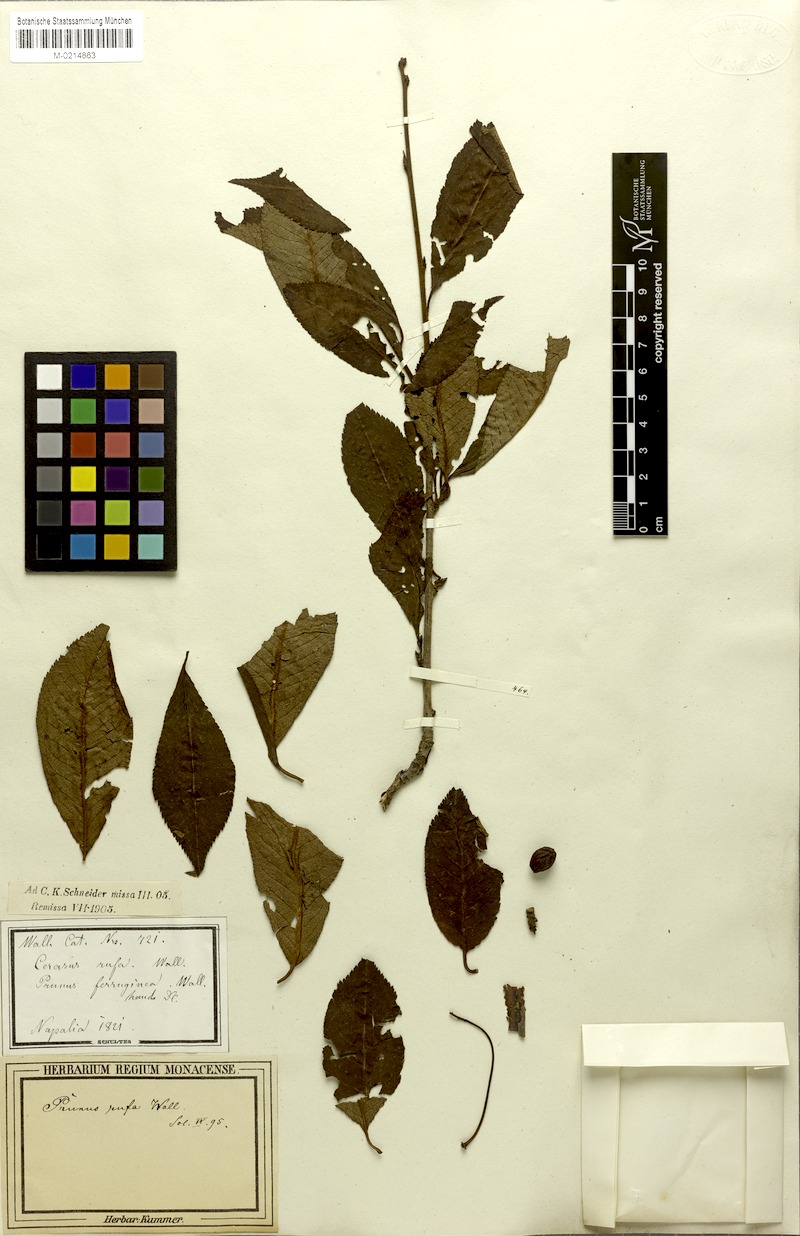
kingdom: Plantae
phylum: Tracheophyta
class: Magnoliopsida
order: Rosales
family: Rosaceae
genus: Prunus
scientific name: Prunus rufa
